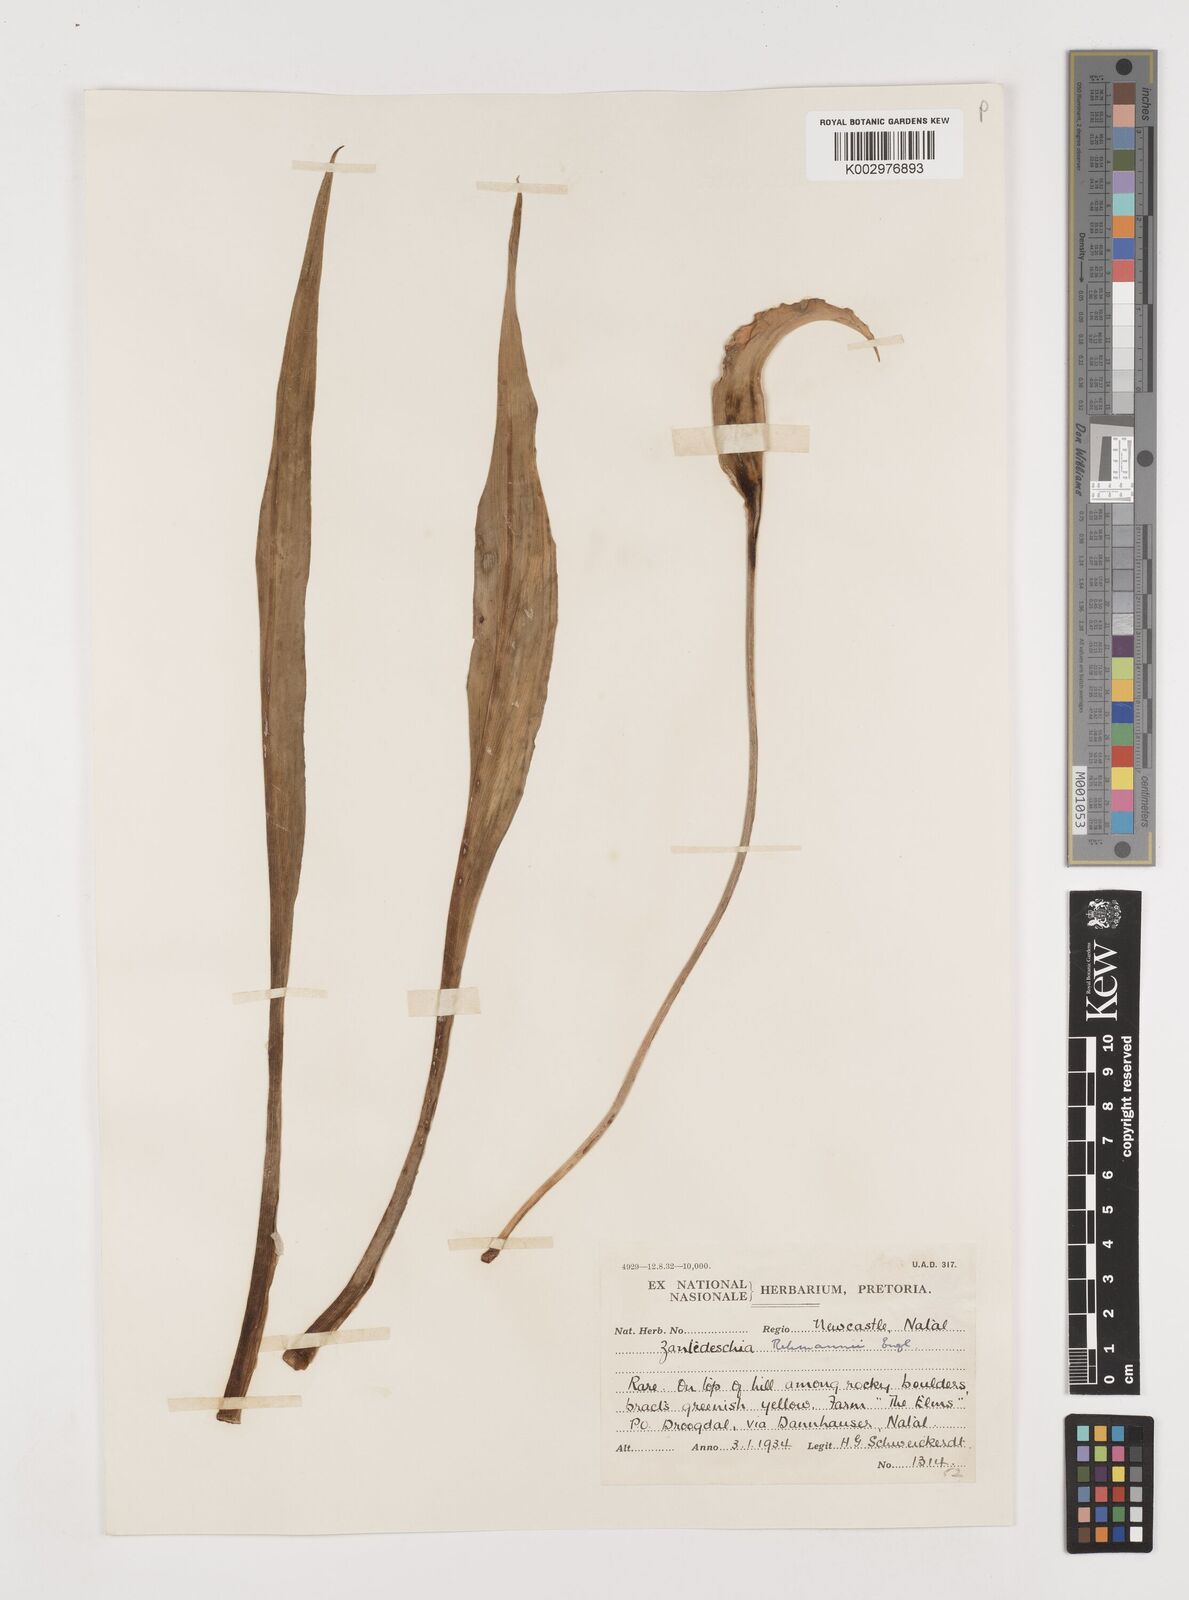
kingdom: Plantae
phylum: Tracheophyta
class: Liliopsida
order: Alismatales
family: Araceae
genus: Zantedeschia
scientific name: Zantedeschia rehmannii
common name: Red calla
